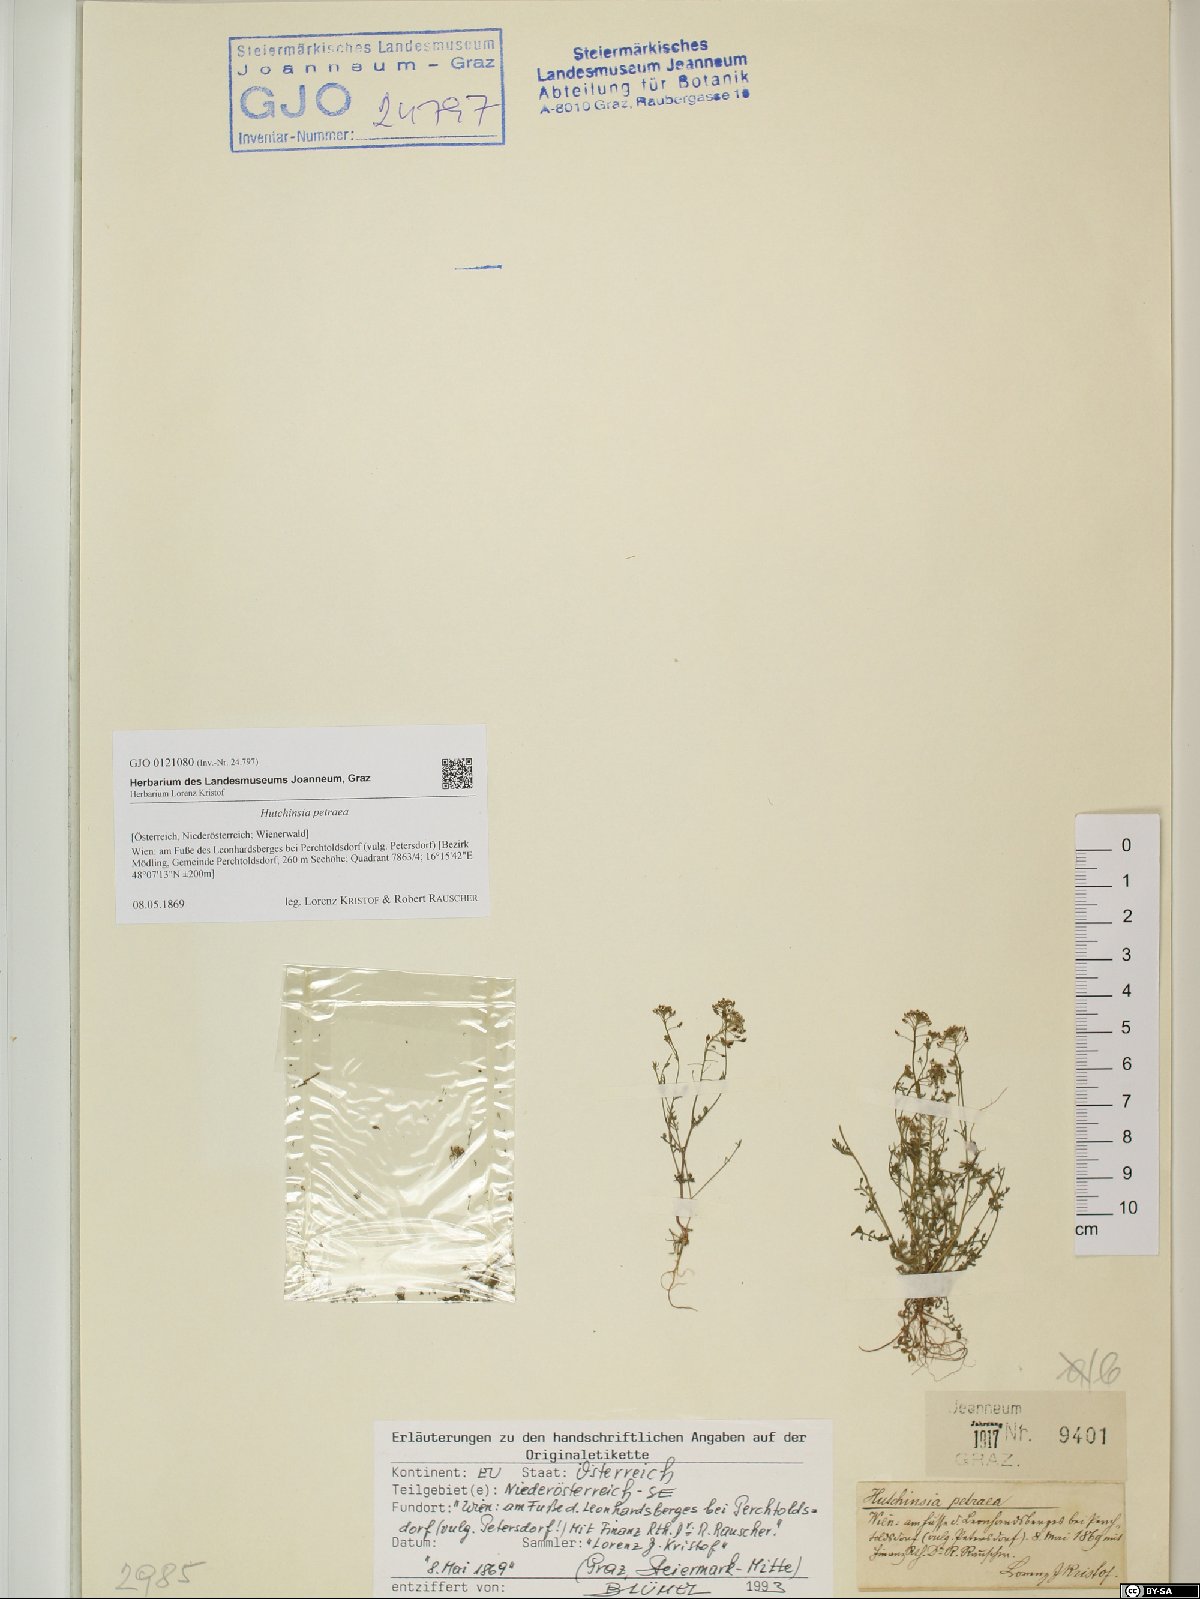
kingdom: Plantae
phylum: Tracheophyta
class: Magnoliopsida
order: Brassicales
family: Brassicaceae
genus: Hornungia
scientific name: Hornungia petraea
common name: Hutchinsia
